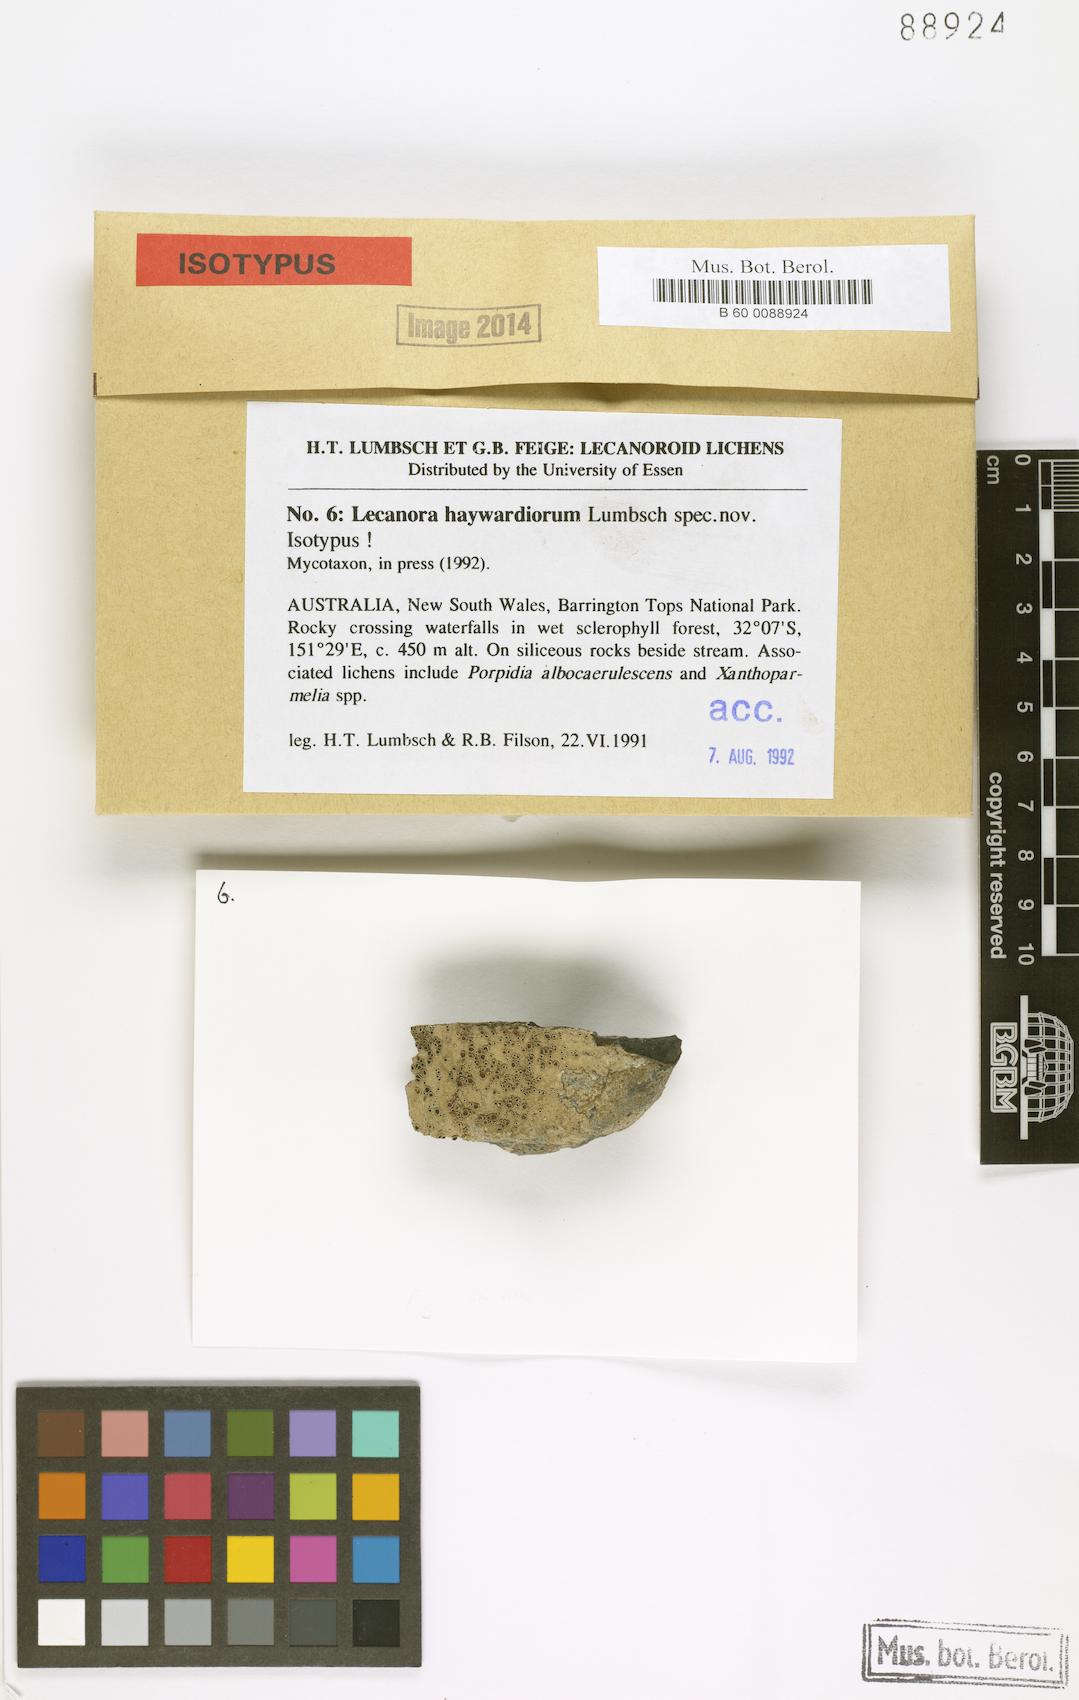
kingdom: Fungi
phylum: Ascomycota
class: Lecanoromycetes
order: Lecanorales
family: Lecanoraceae
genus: Lecanora
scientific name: Lecanora melacarpella
